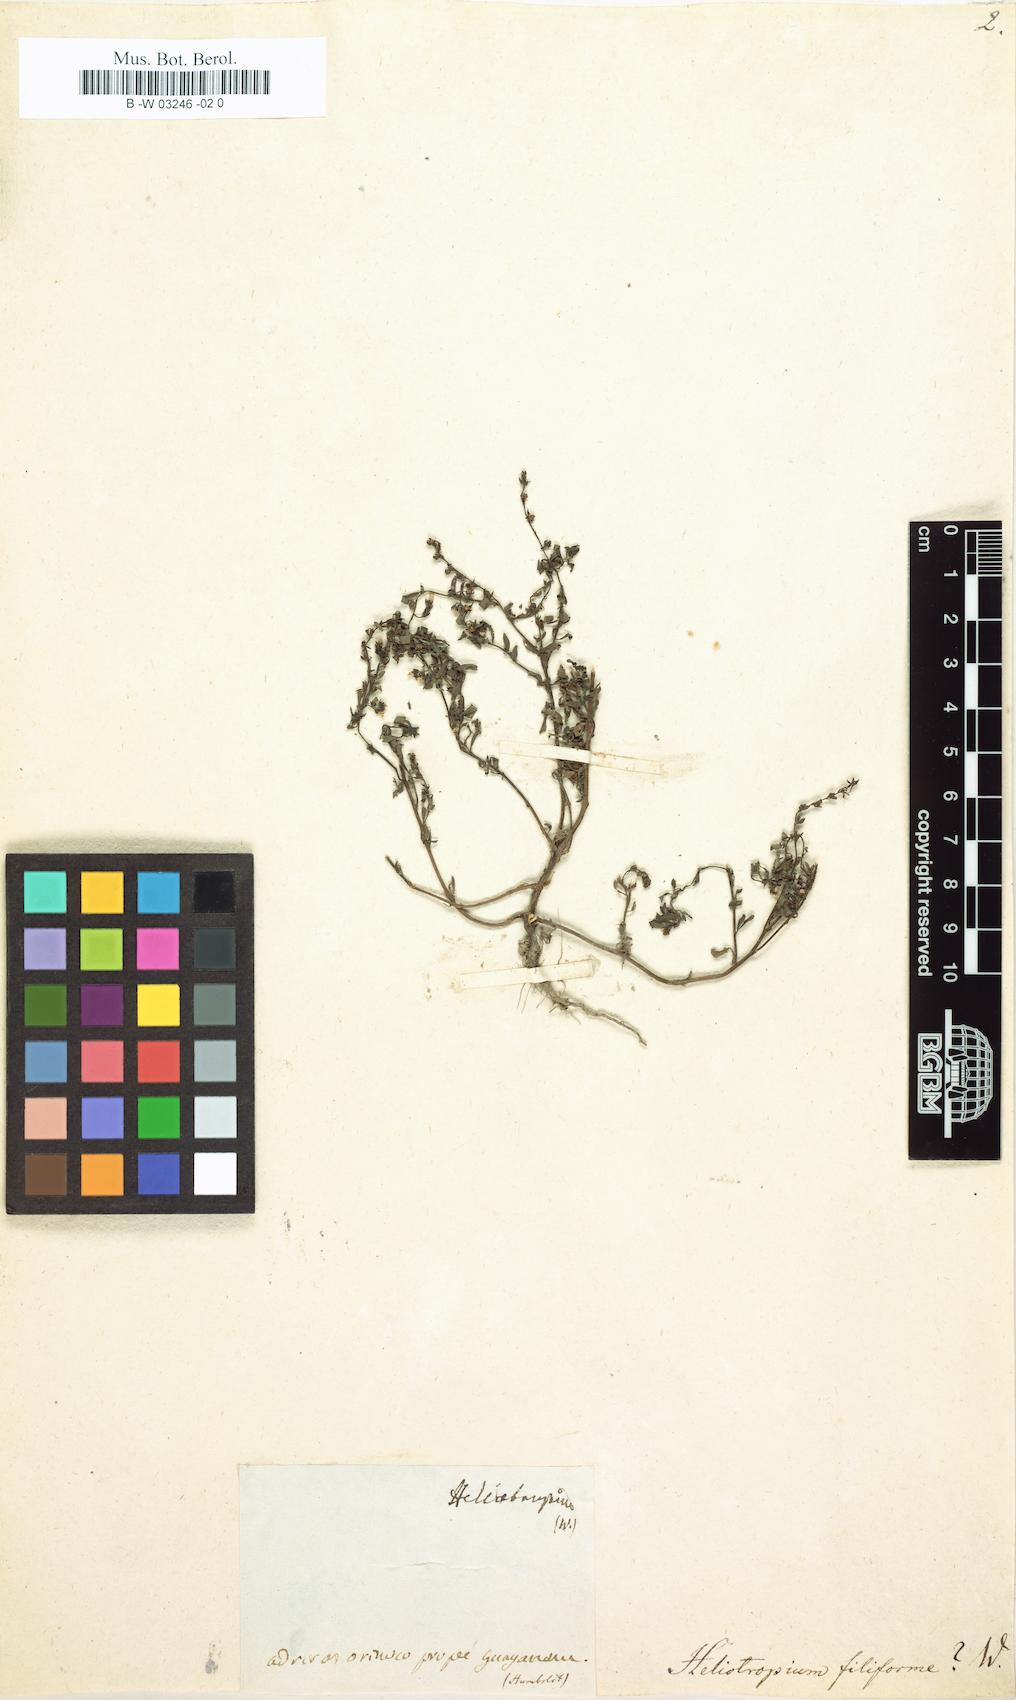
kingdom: Plantae
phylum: Tracheophyta
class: Magnoliopsida
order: Boraginales
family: Heliotropiaceae
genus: Euploca
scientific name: Euploca filiformis
